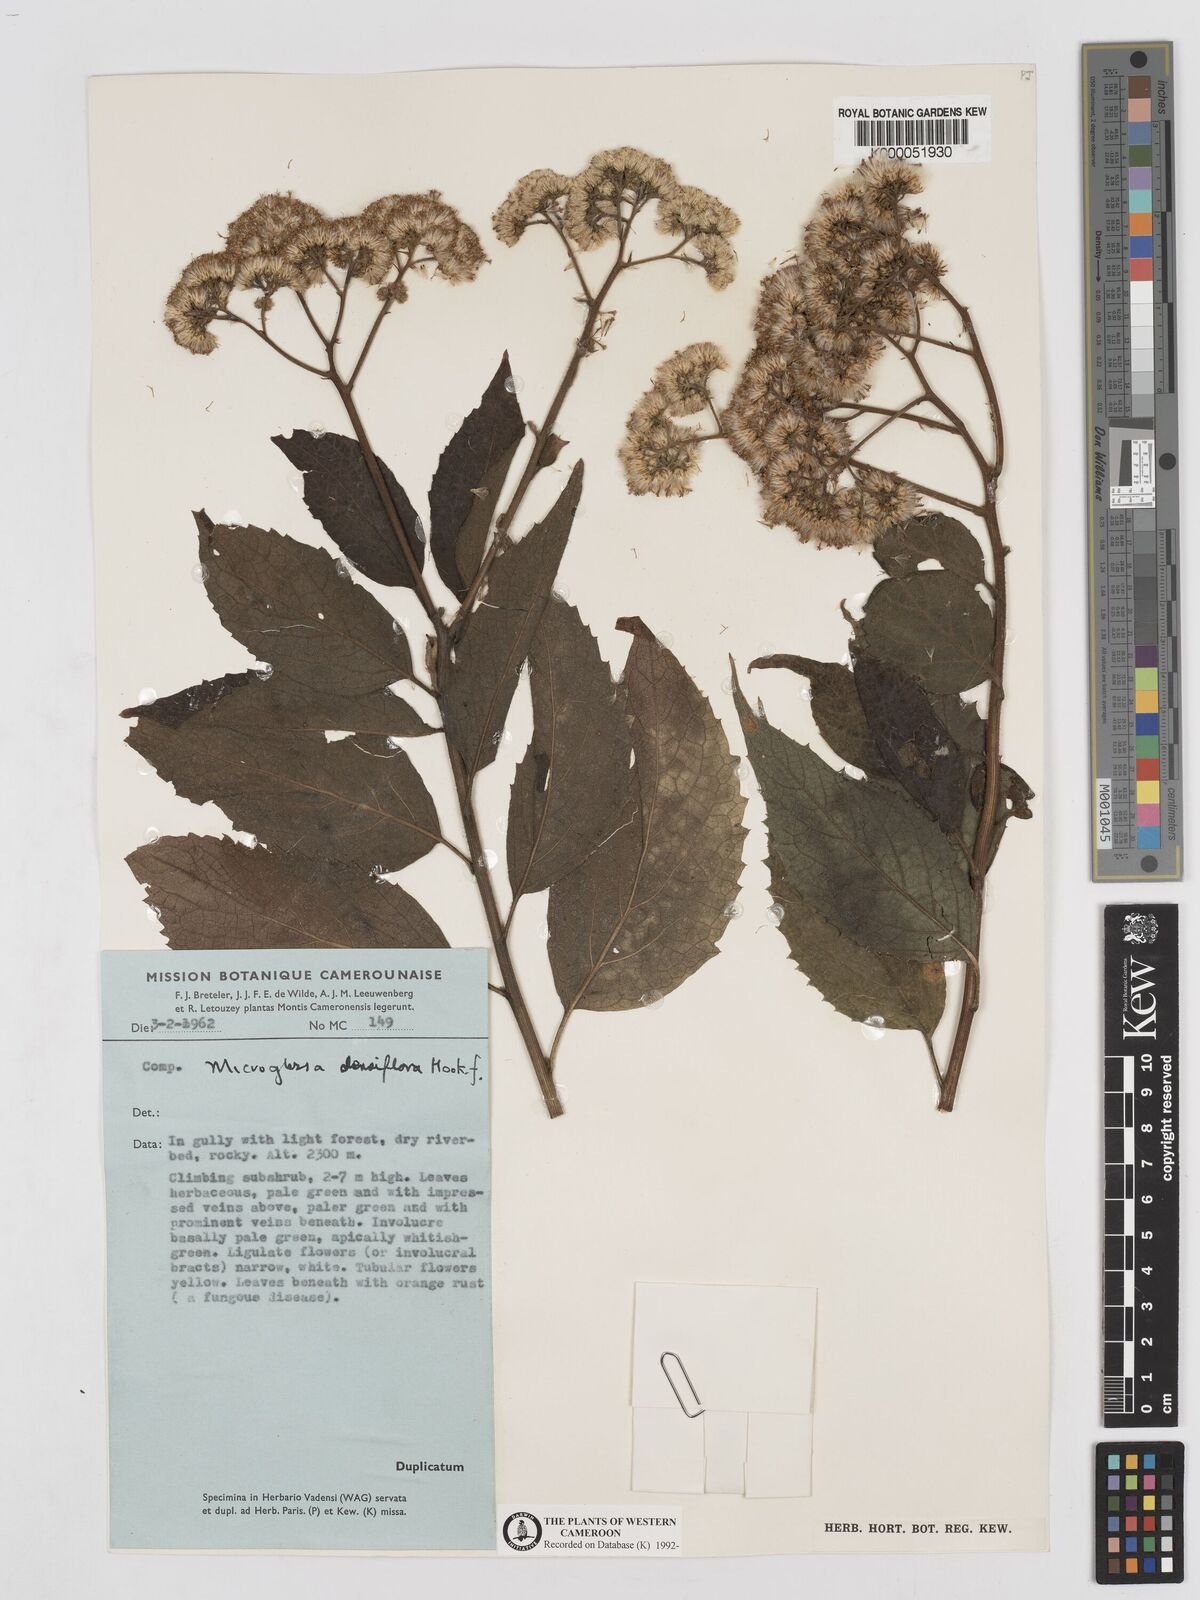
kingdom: Plantae
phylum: Tracheophyta
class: Magnoliopsida
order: Asterales
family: Asteraceae
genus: Microglossa
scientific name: Microglossa densiflora
